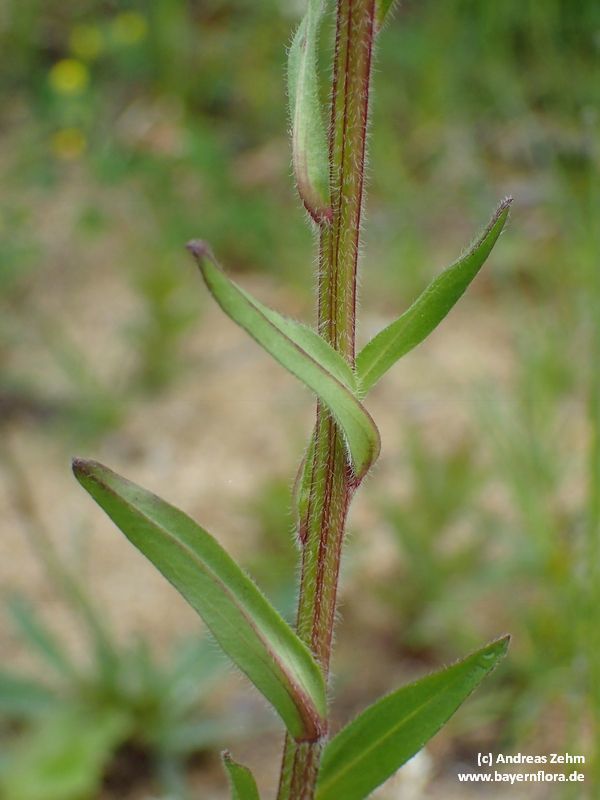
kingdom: Plantae
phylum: Tracheophyta
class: Magnoliopsida
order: Asterales
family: Asteraceae
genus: Erigeron
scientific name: Erigeron acris
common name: Blue fleabane
